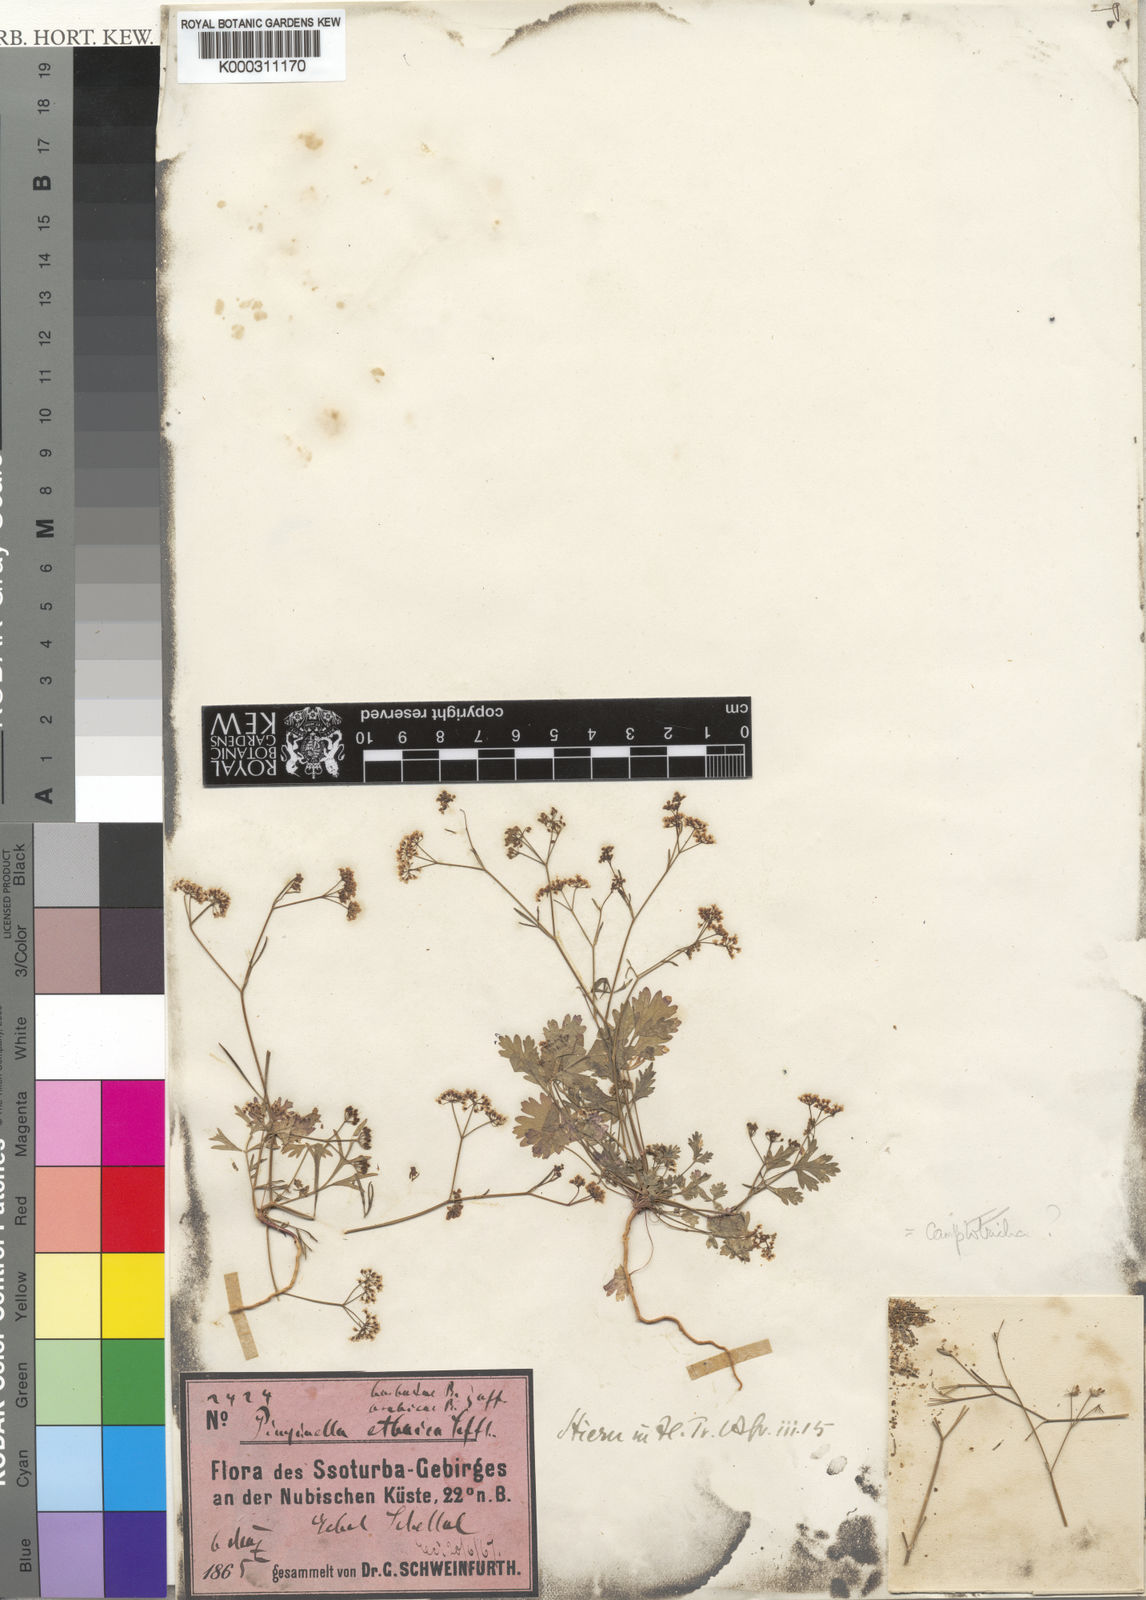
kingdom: Plantae
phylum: Tracheophyta
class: Magnoliopsida
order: Apiales
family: Apiaceae
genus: Pimpinella
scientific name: Pimpinella etbaica
